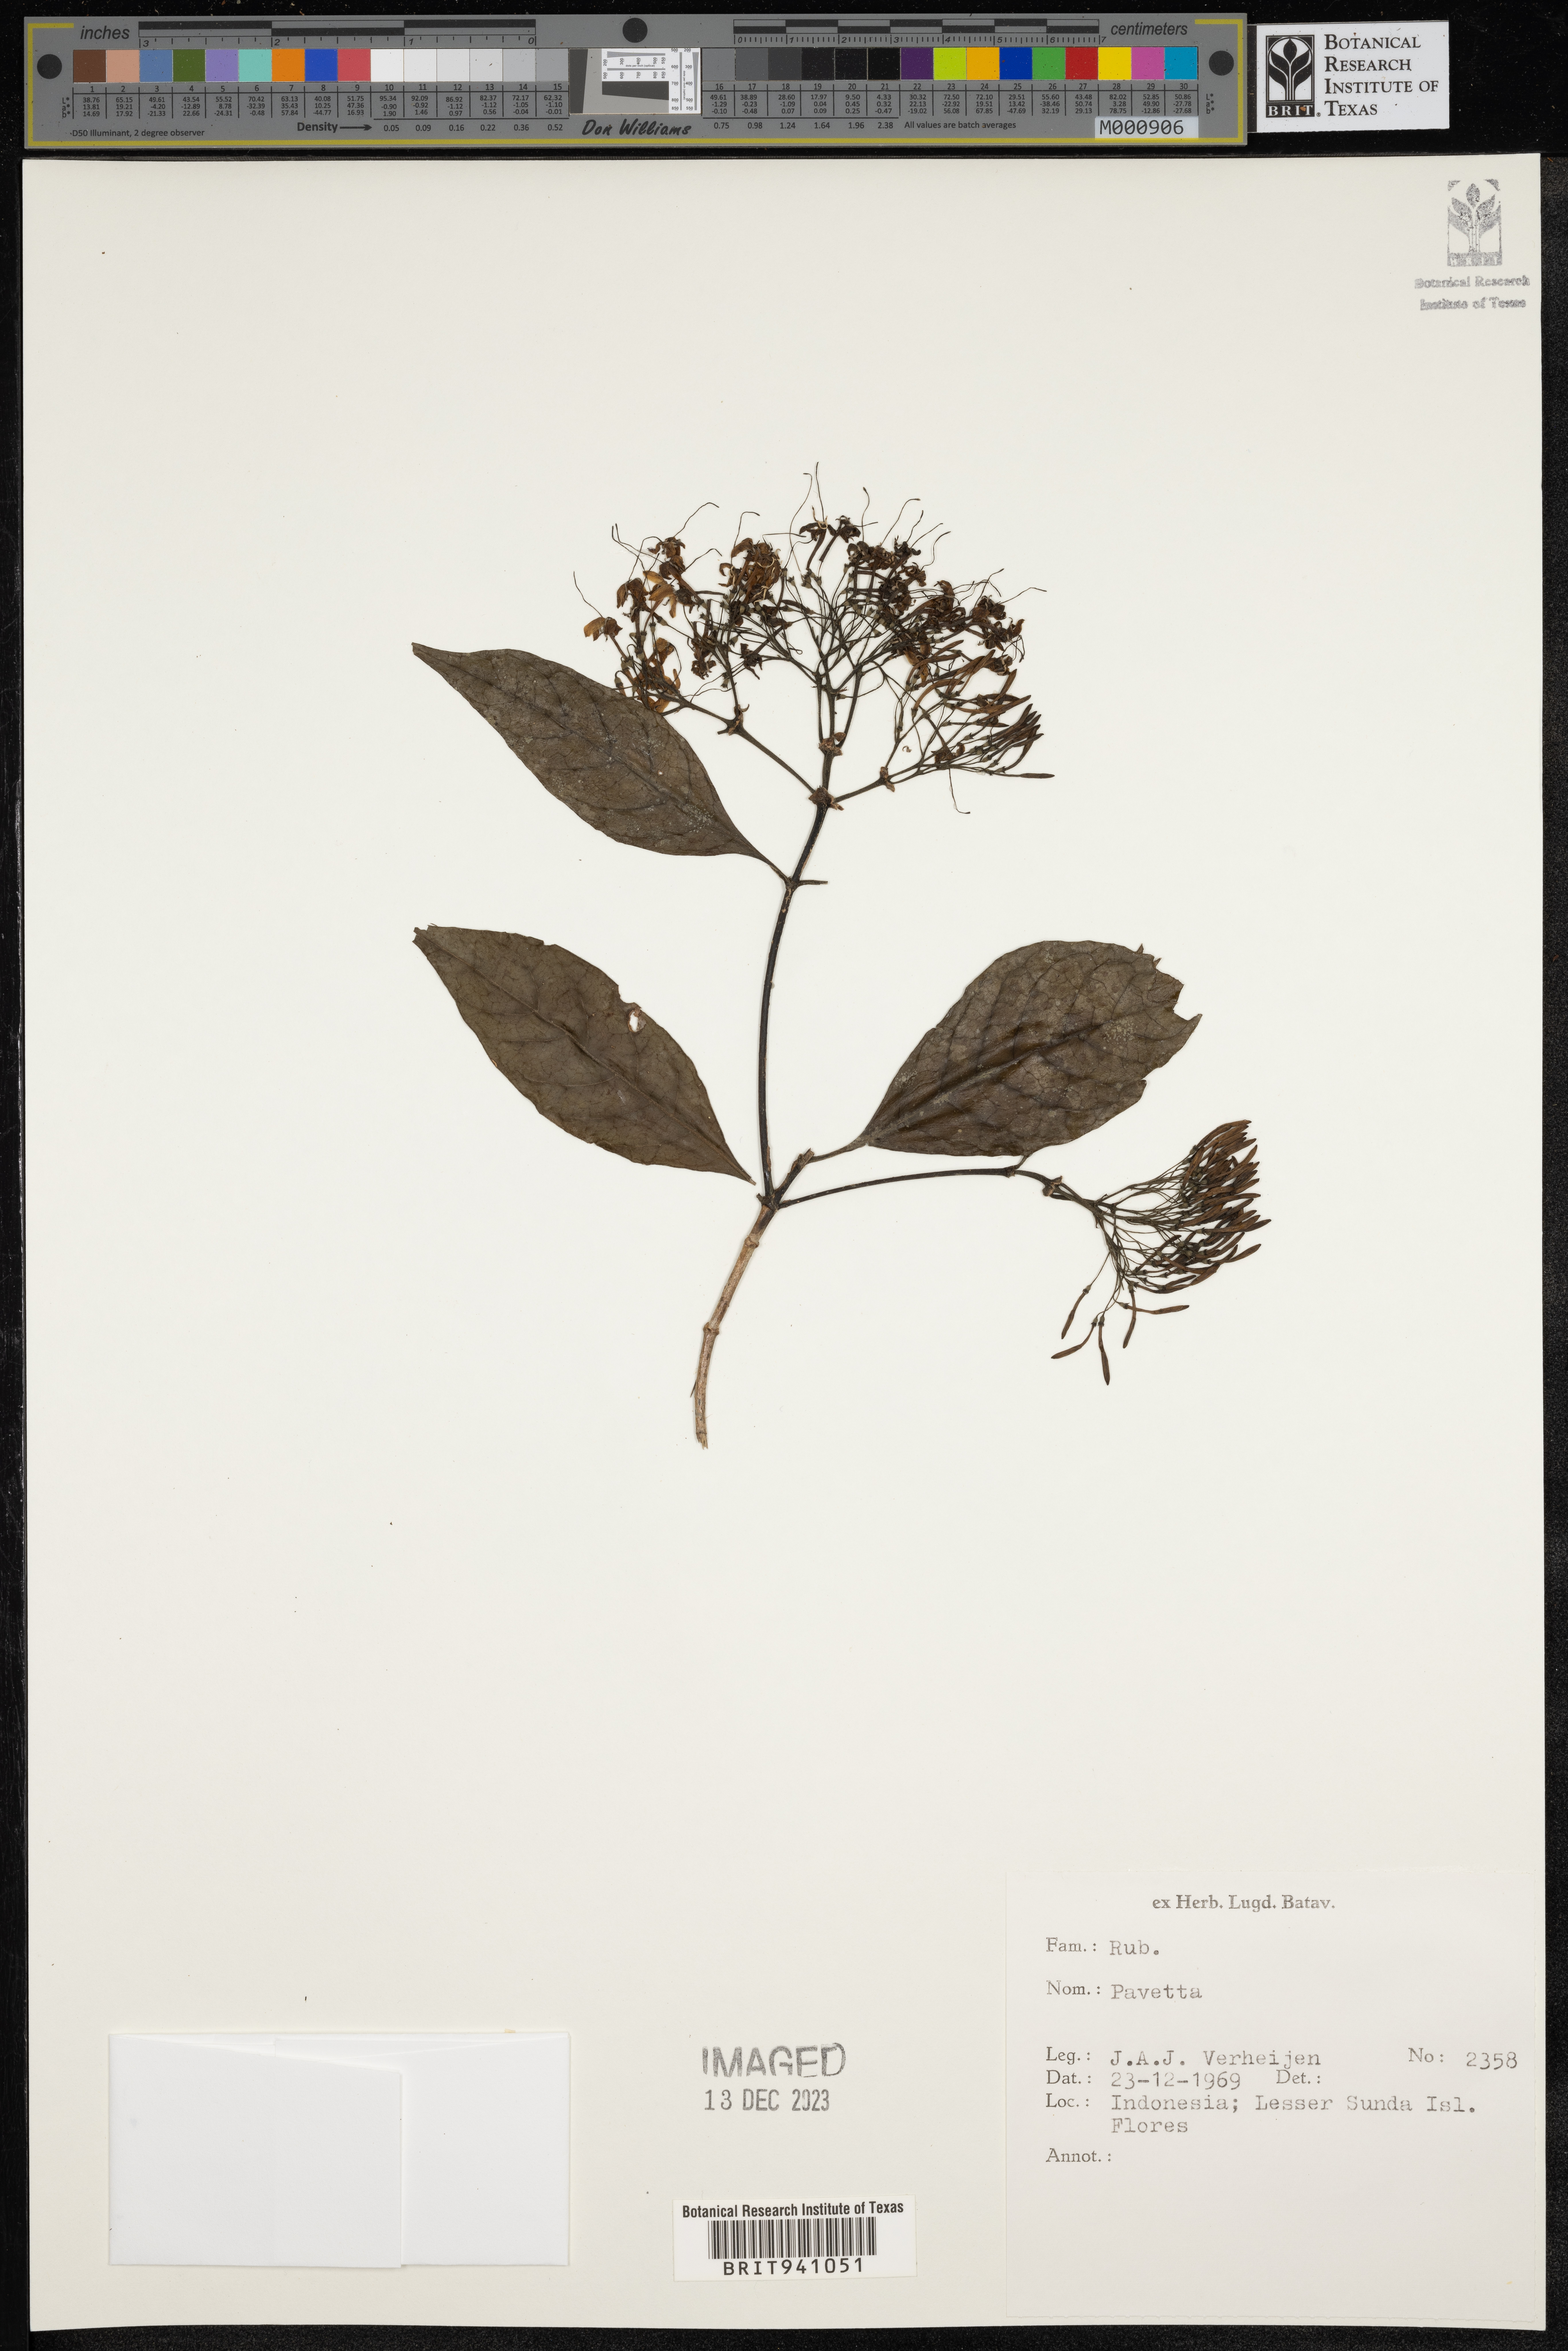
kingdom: Plantae
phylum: Tracheophyta
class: Magnoliopsida
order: Gentianales
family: Rubiaceae
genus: Pavetta
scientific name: Pavetta
